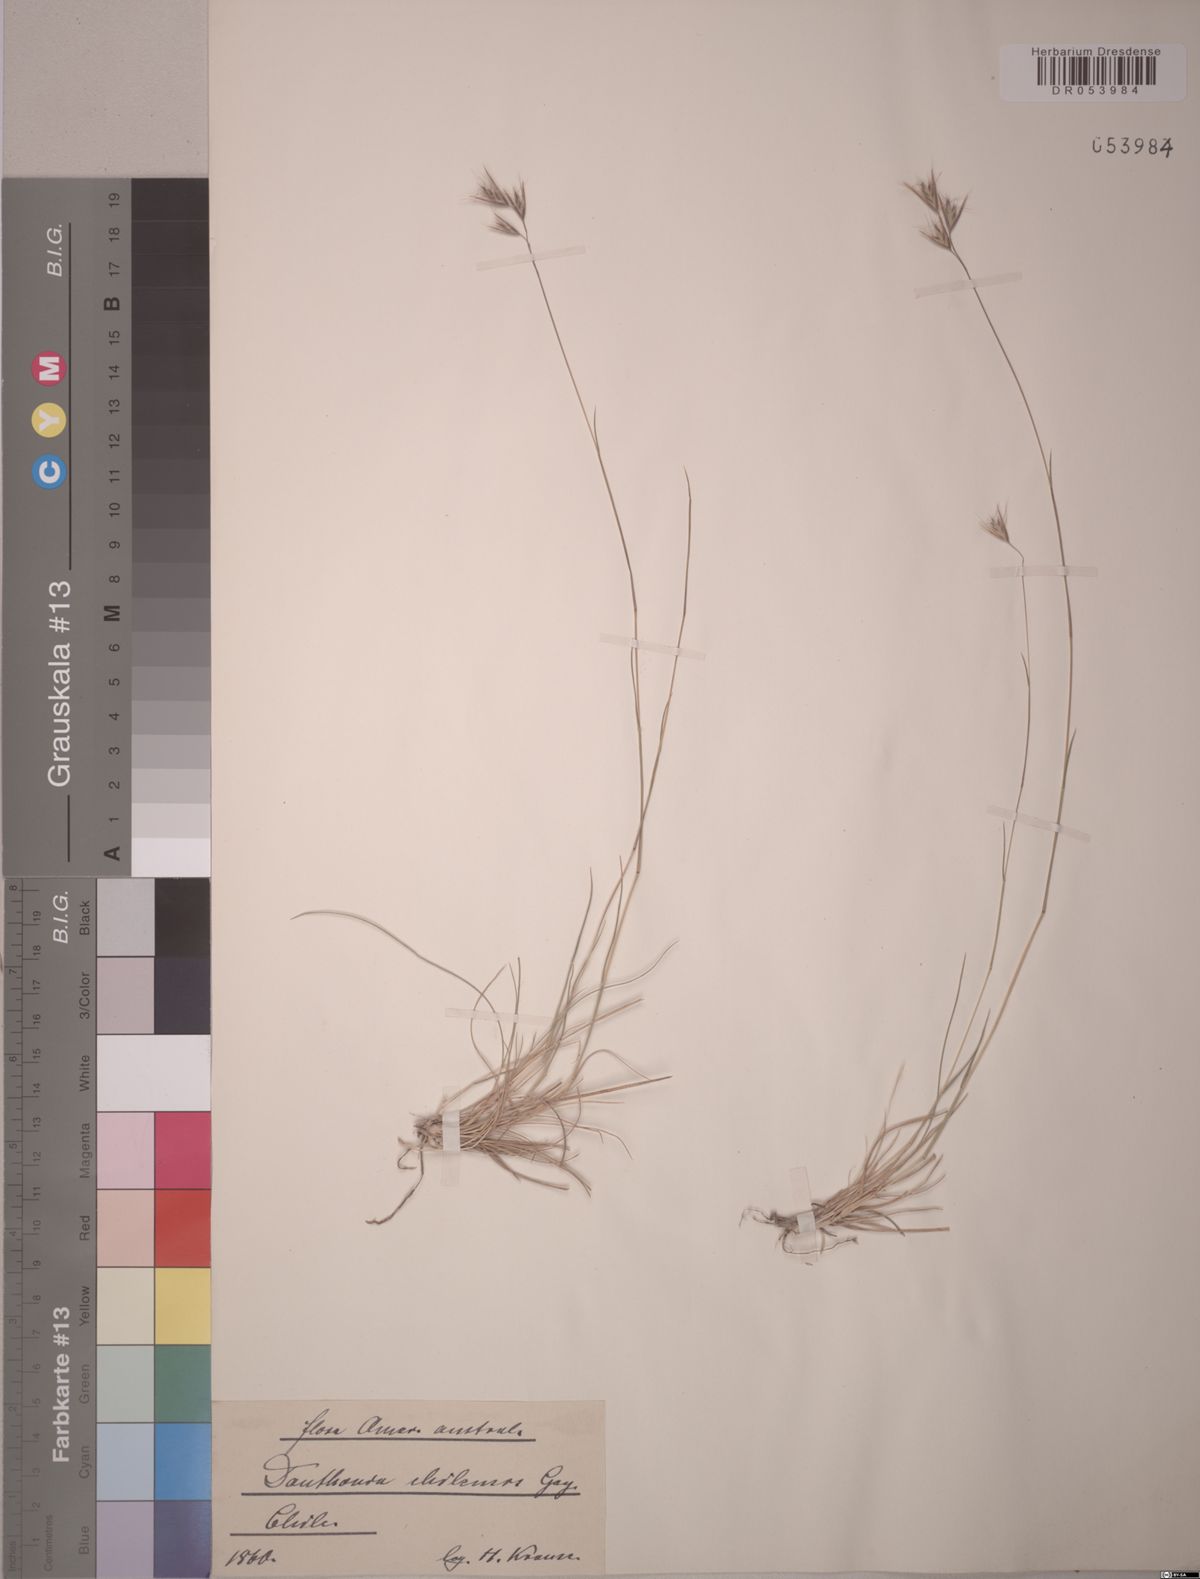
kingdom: Plantae
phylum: Tracheophyta
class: Liliopsida
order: Poales
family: Poaceae
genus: Danthonia
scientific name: Danthonia chilensis
